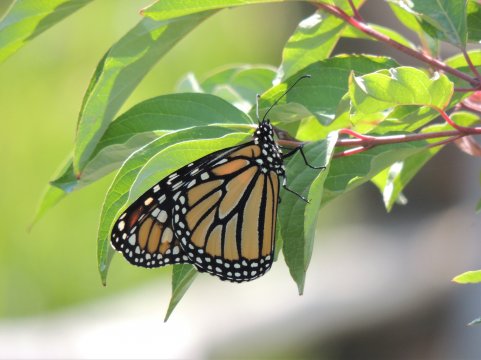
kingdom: Animalia
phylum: Arthropoda
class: Insecta
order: Lepidoptera
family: Nymphalidae
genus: Danaus
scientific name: Danaus plexippus
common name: Monarch
